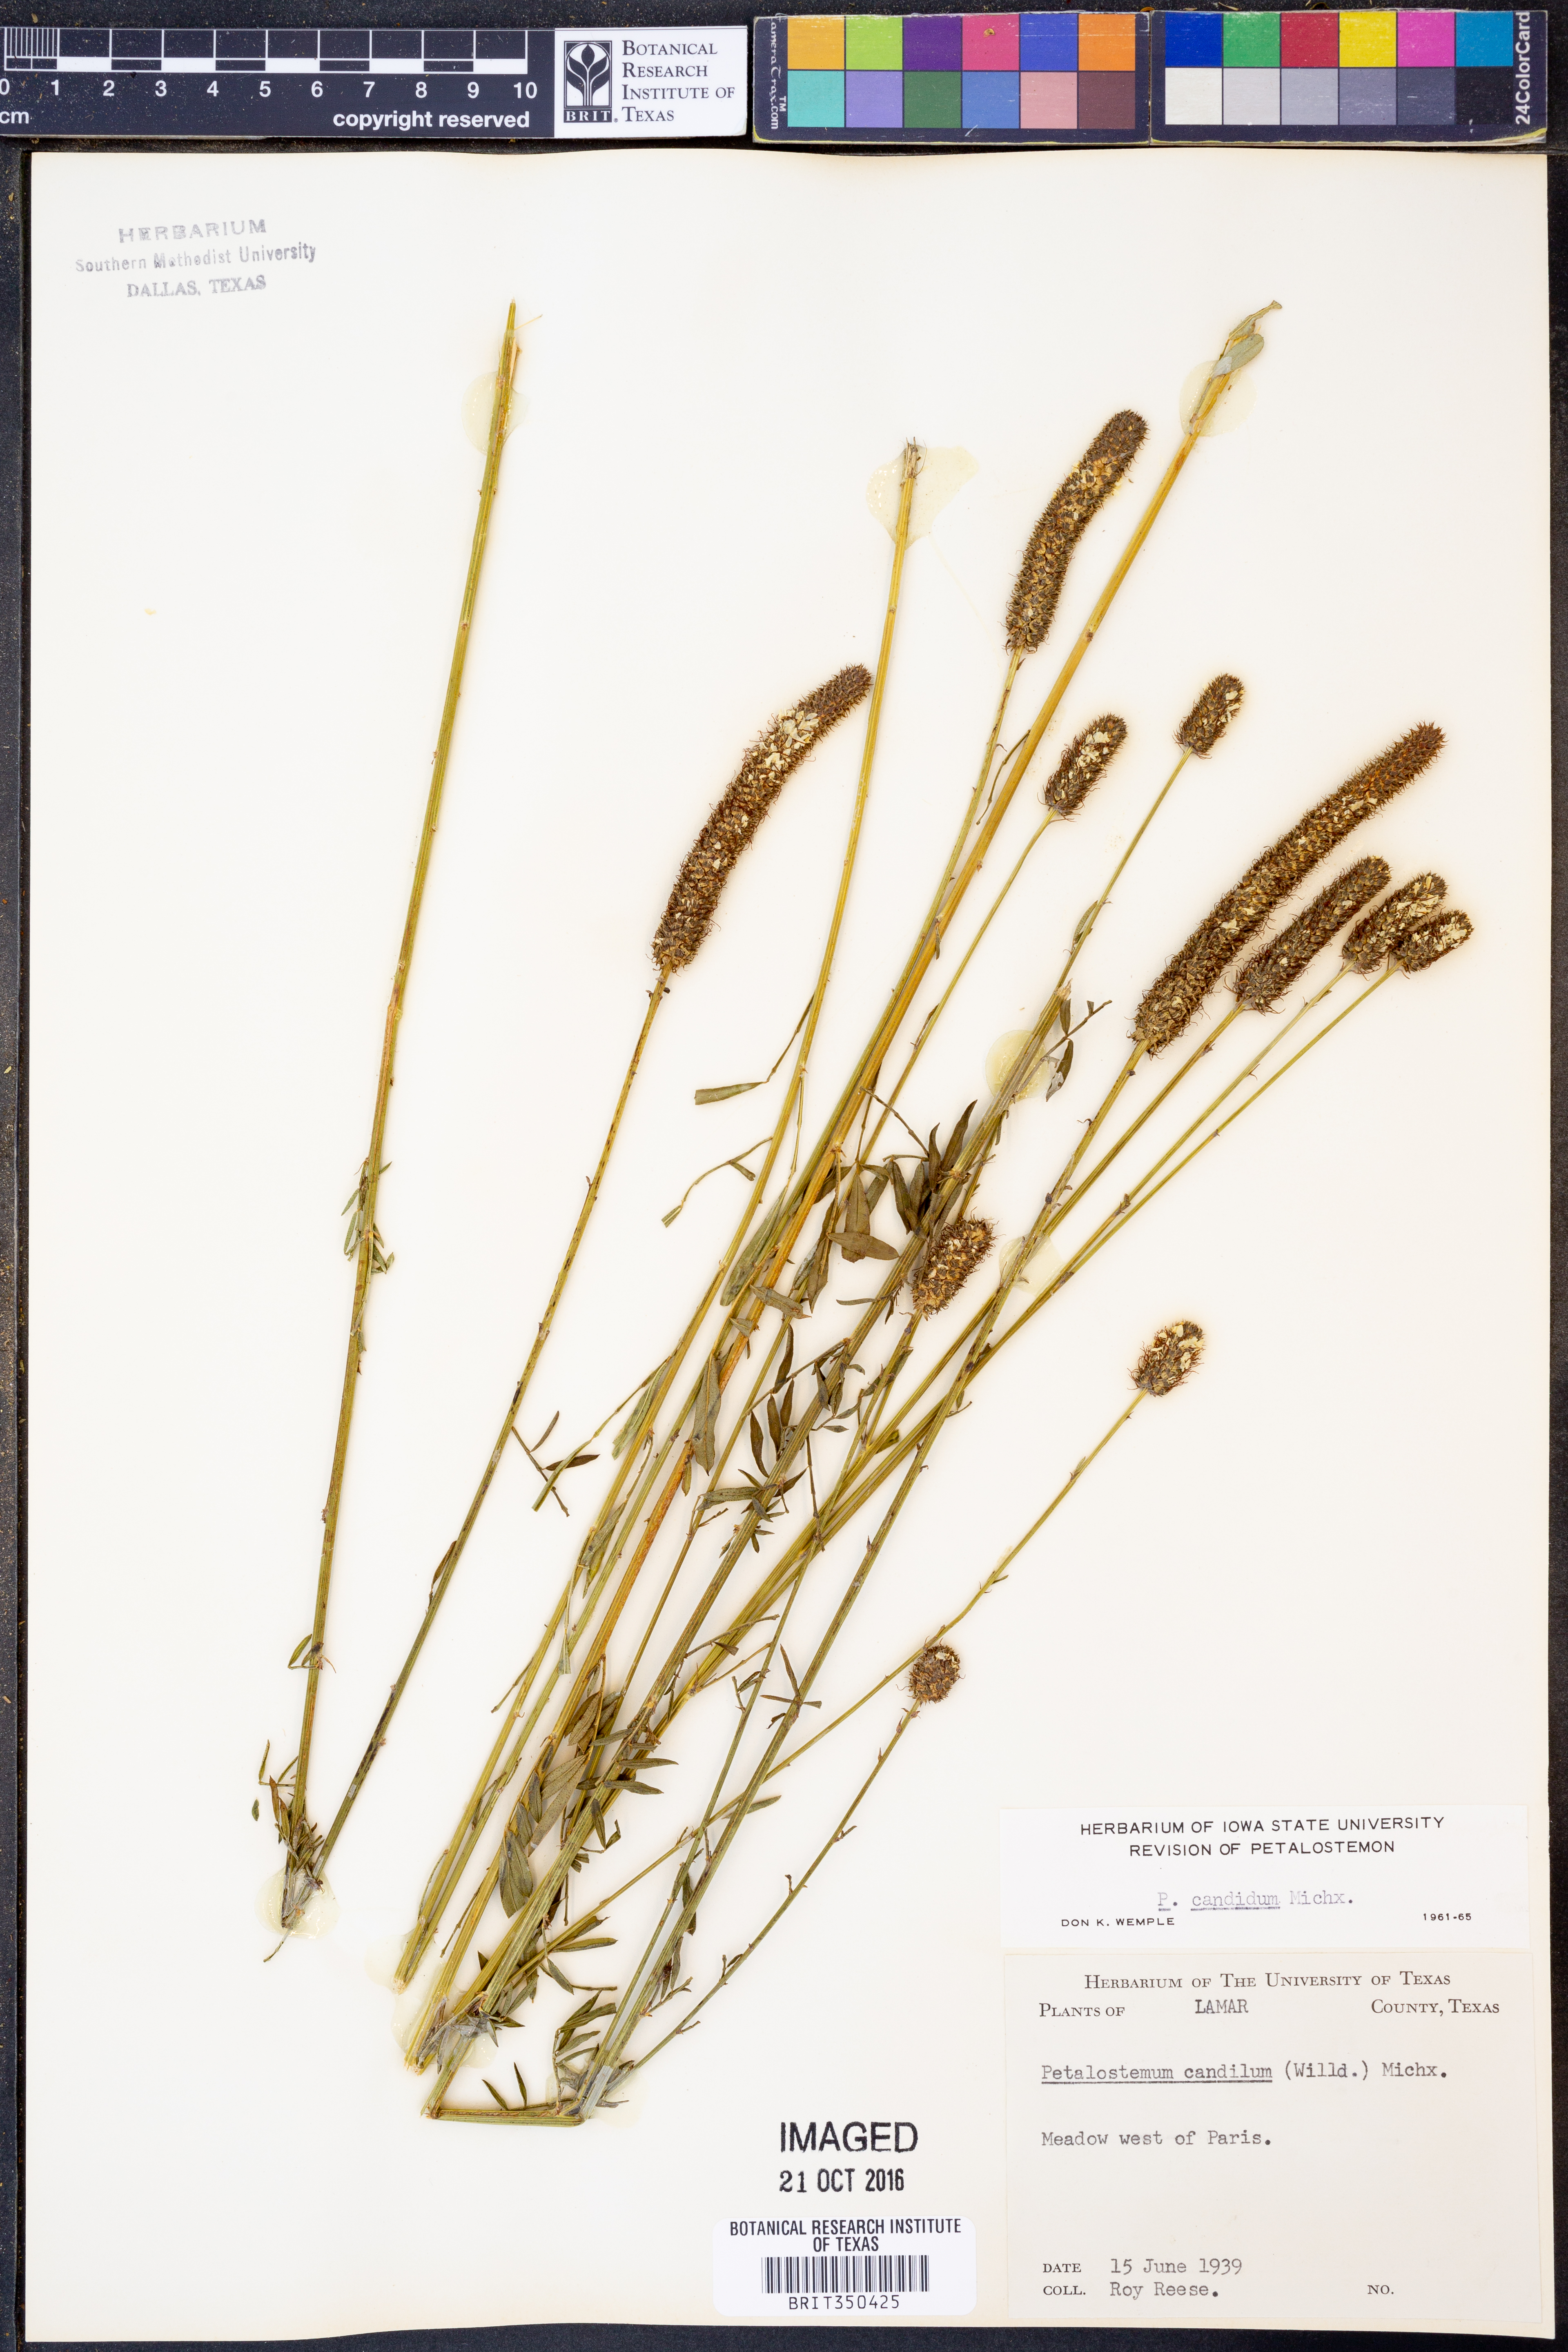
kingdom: Plantae
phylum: Tracheophyta
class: Magnoliopsida
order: Fabales
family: Fabaceae
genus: Dalea
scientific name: Dalea candida
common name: White prairie-clover
